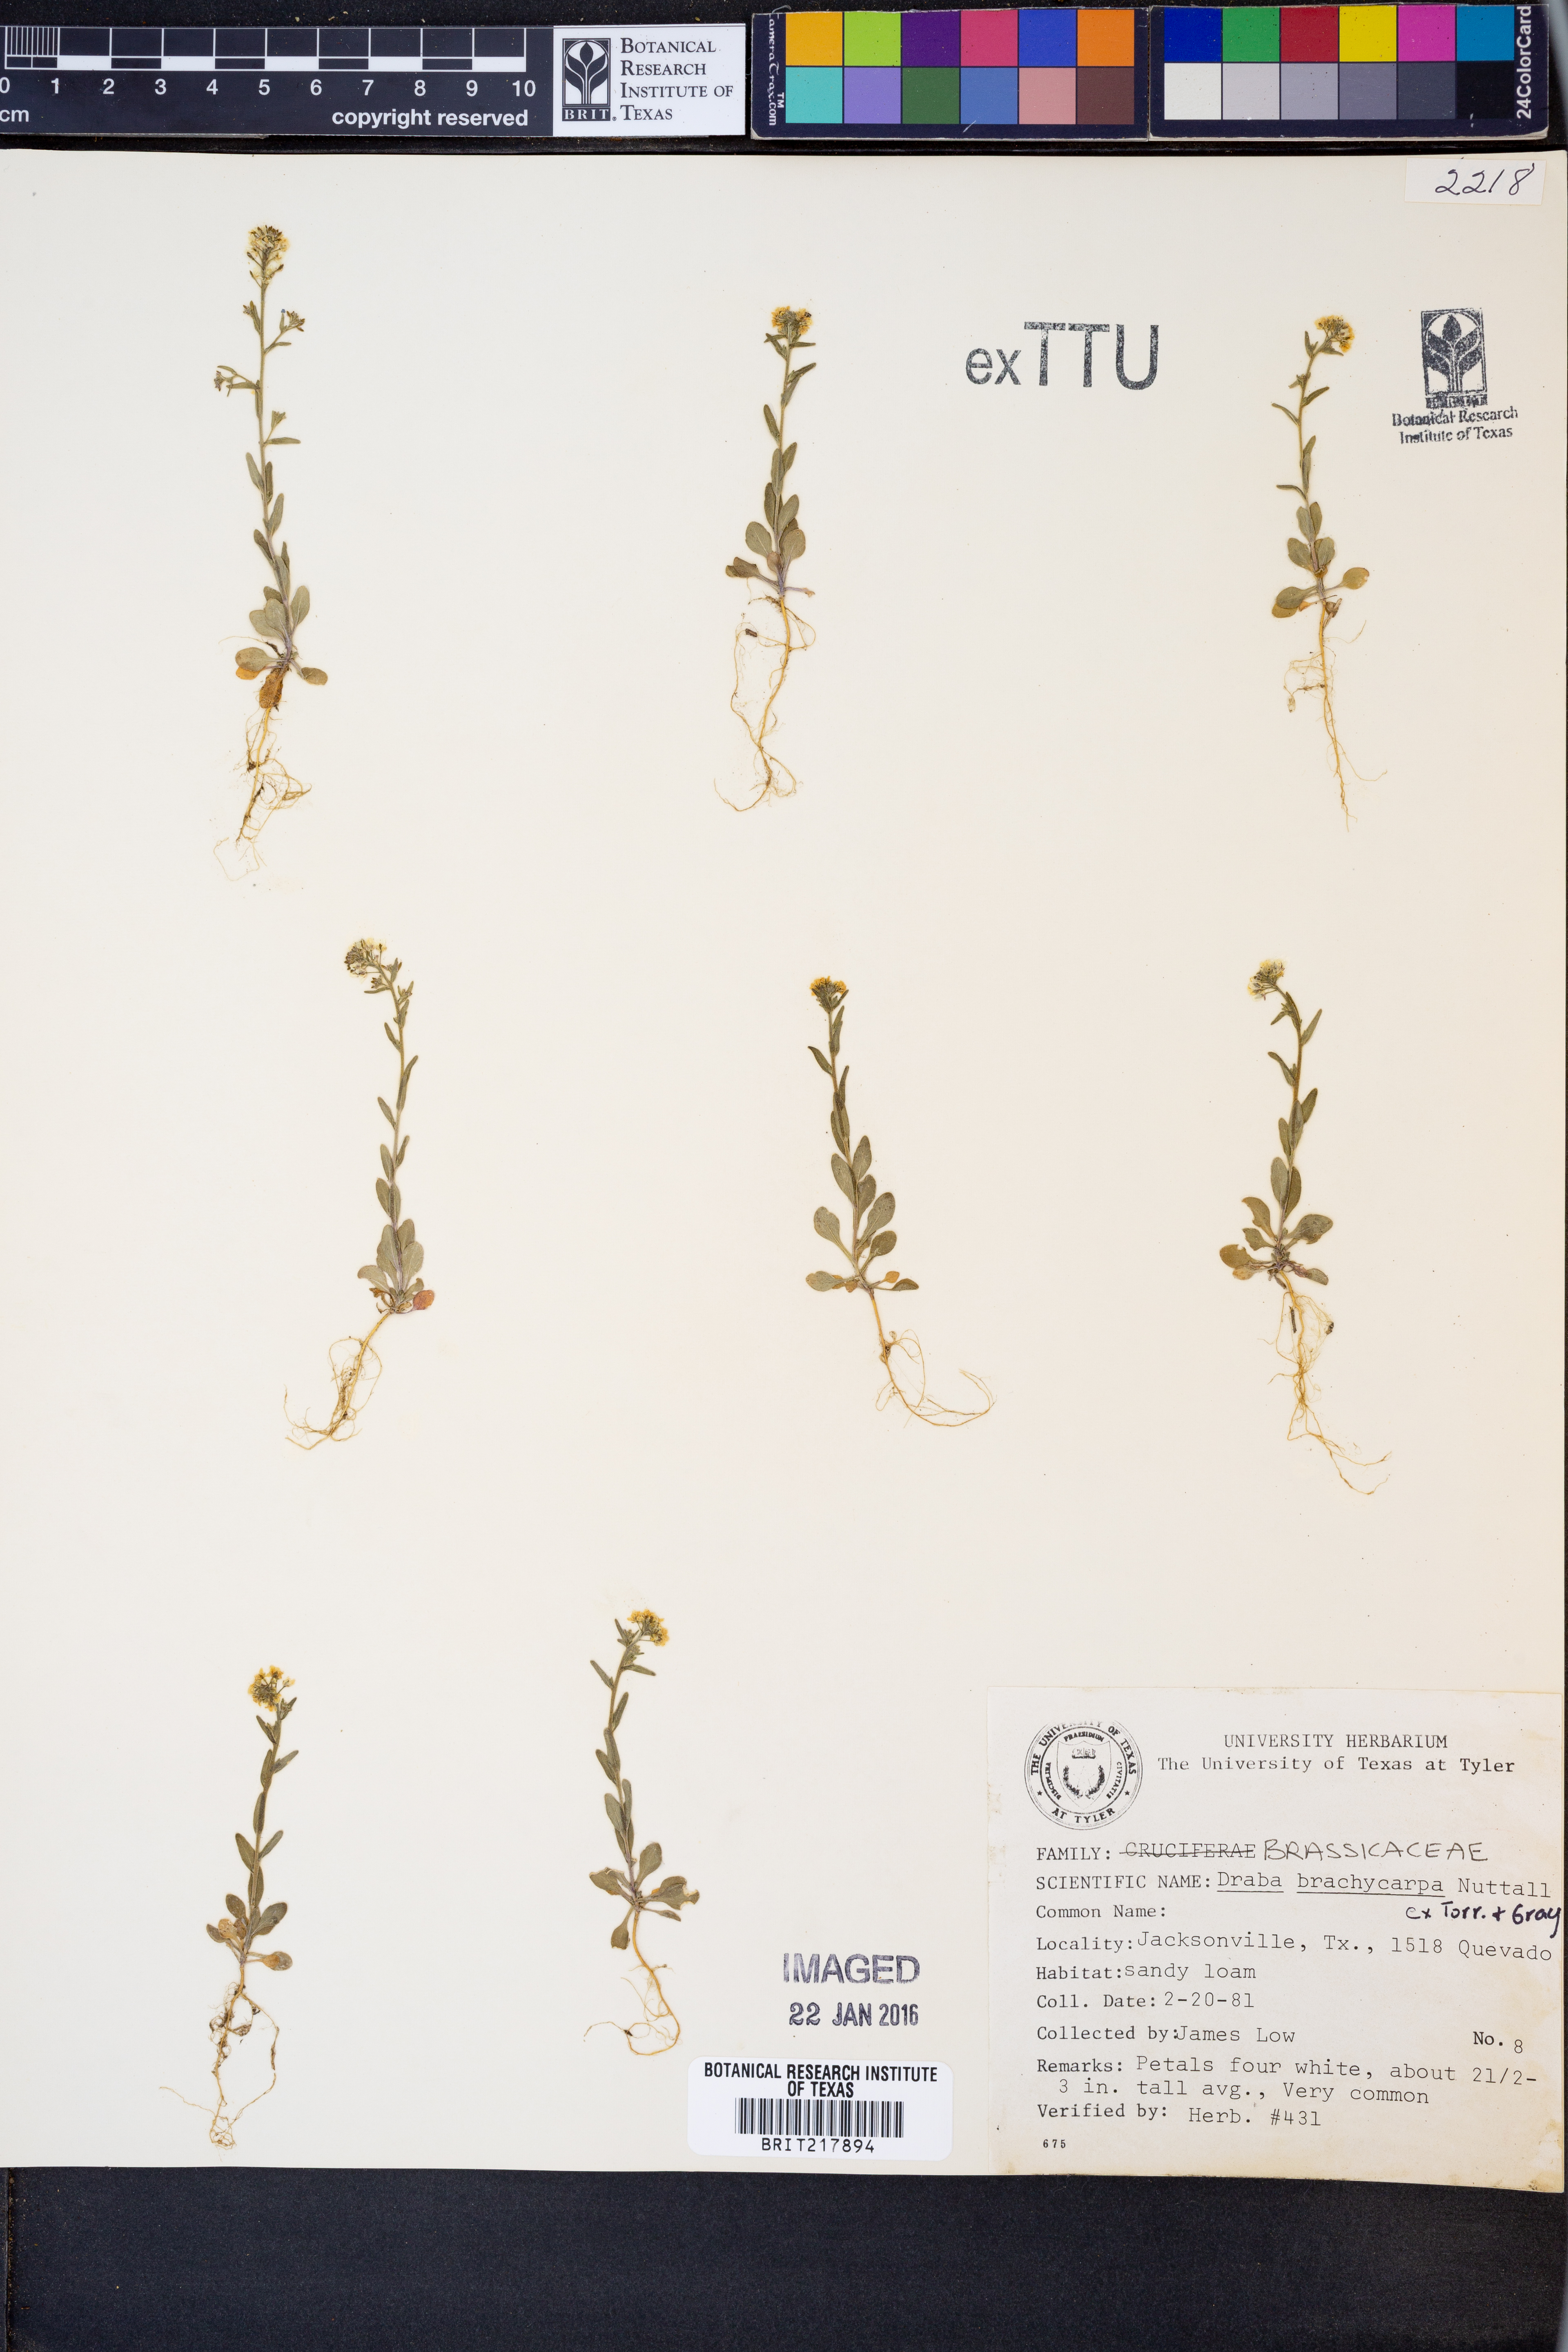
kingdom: Plantae
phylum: Tracheophyta
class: Magnoliopsida
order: Brassicales
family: Brassicaceae
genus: Abdra
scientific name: Abdra brachycarpa
